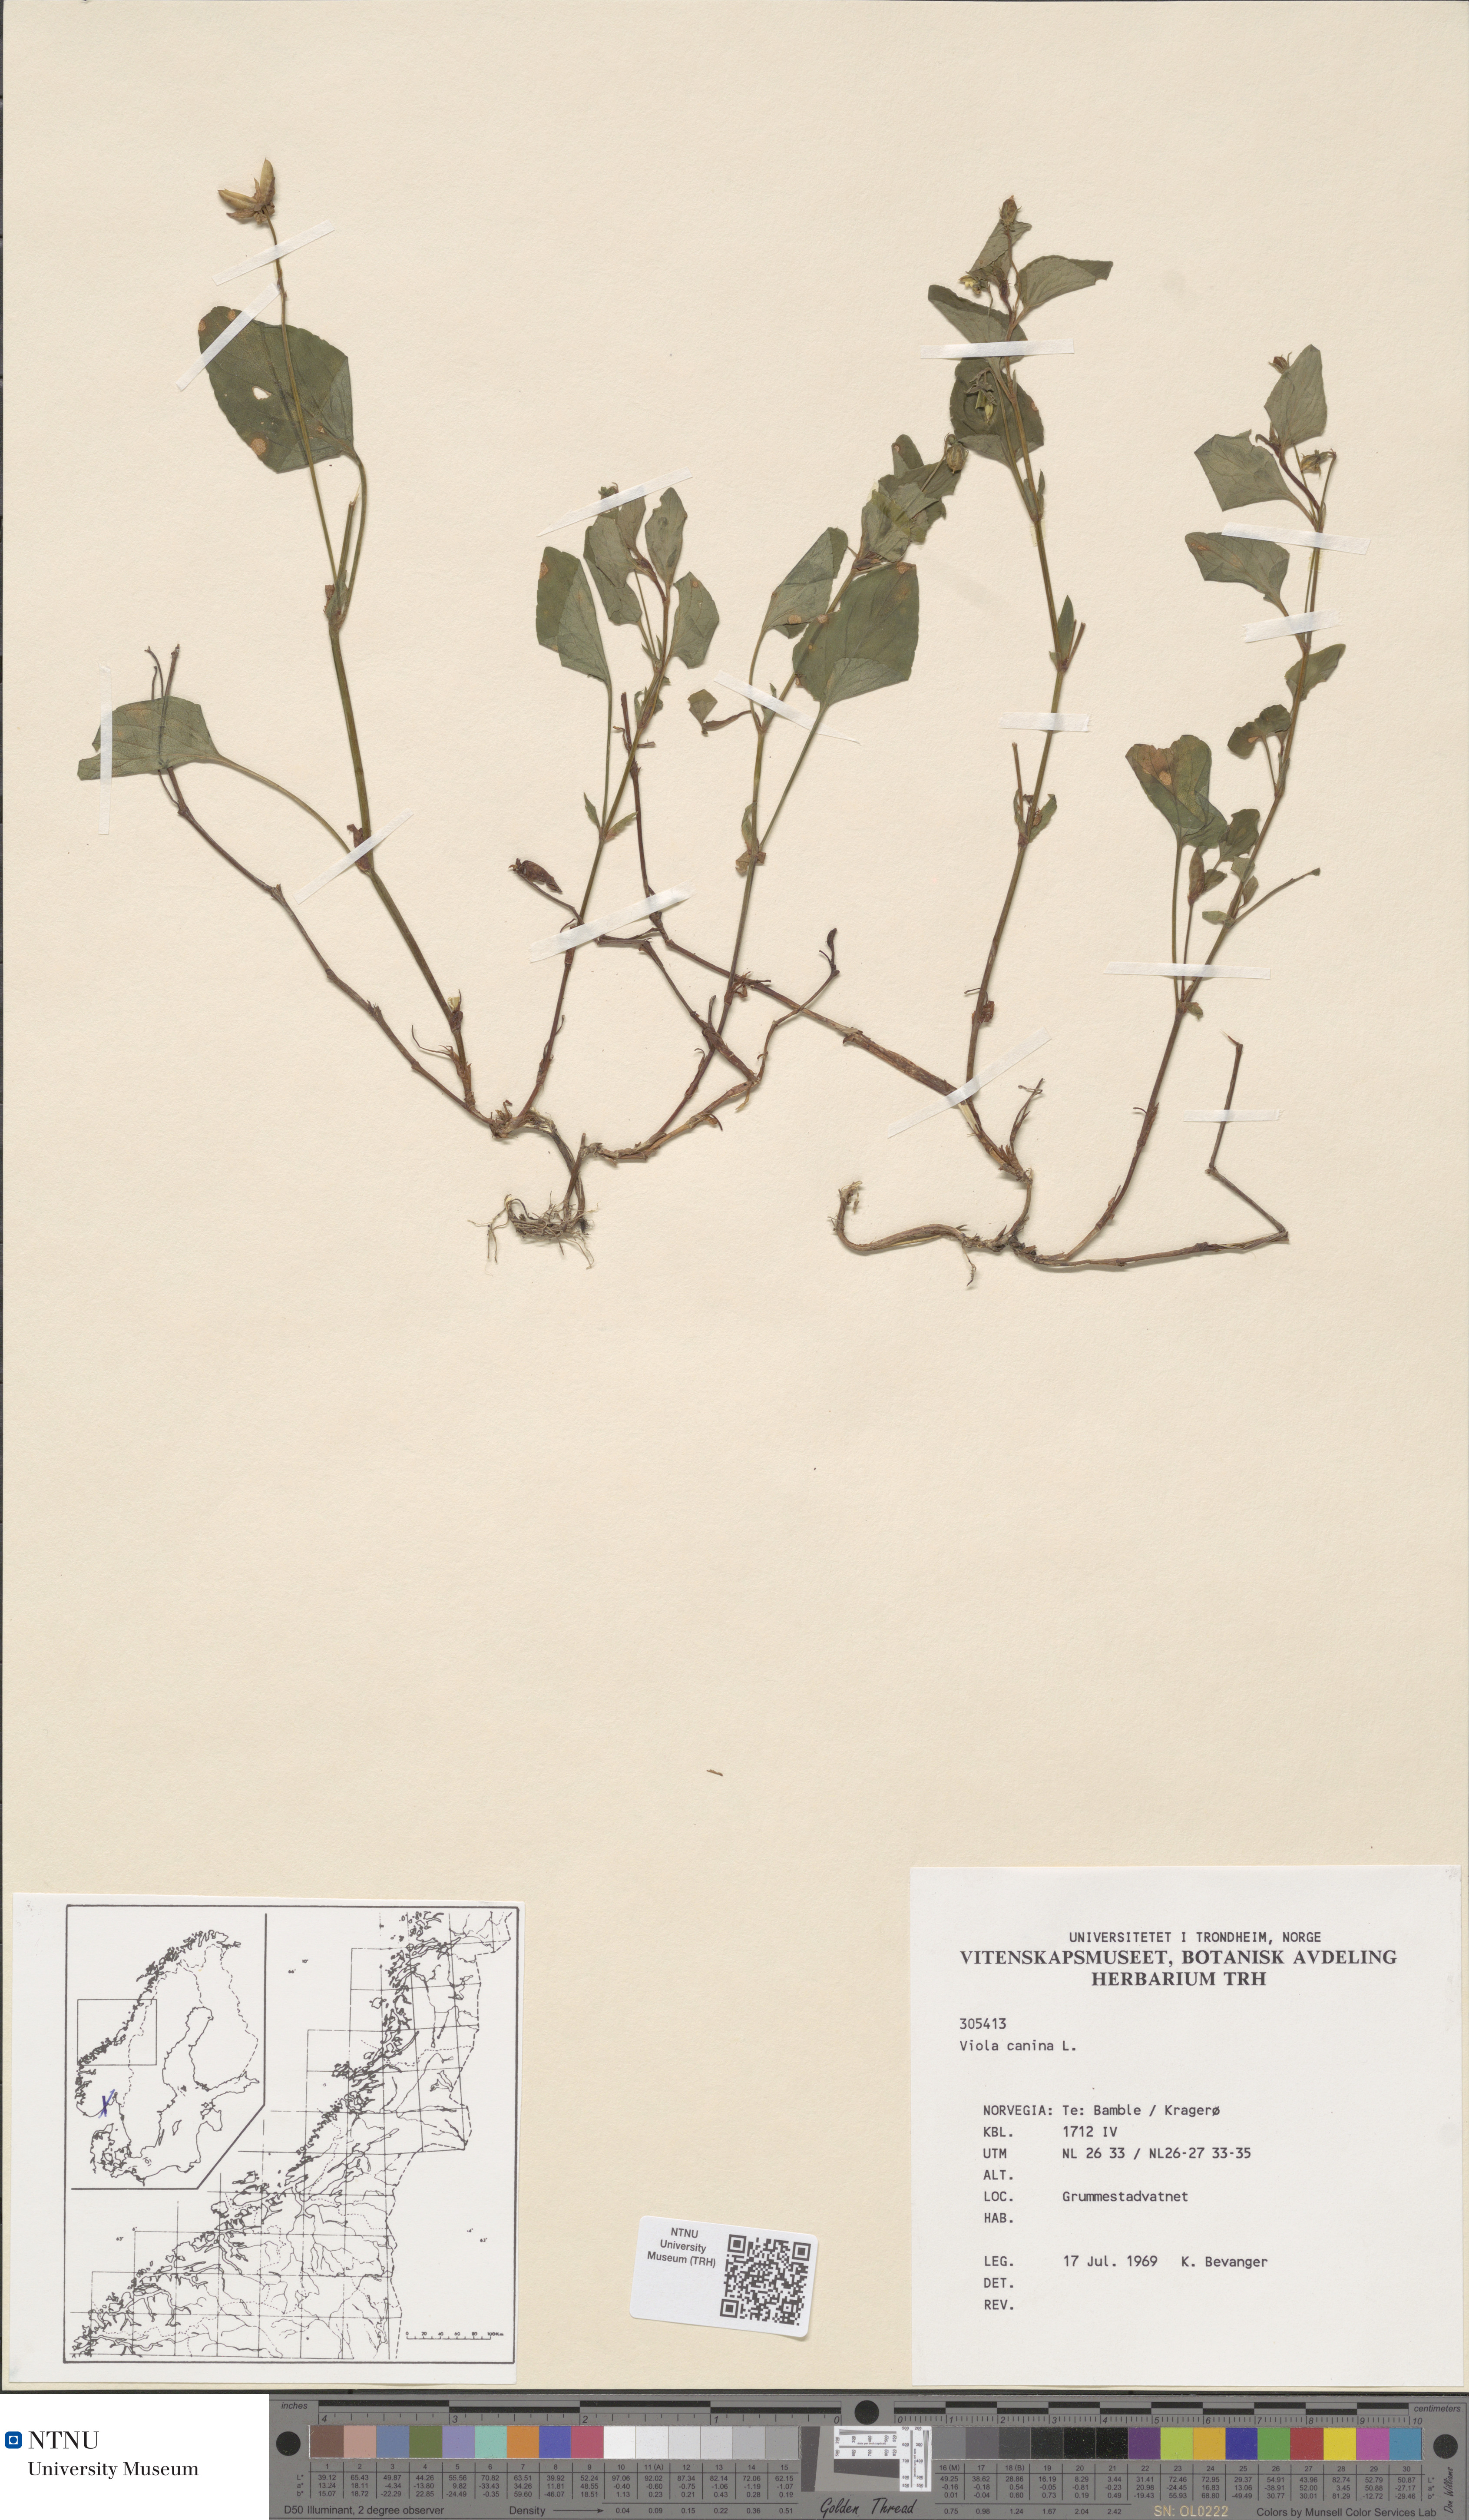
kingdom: Plantae
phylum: Tracheophyta
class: Magnoliopsida
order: Malpighiales
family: Violaceae
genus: Viola
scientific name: Viola canina
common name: Heath dog-violet
